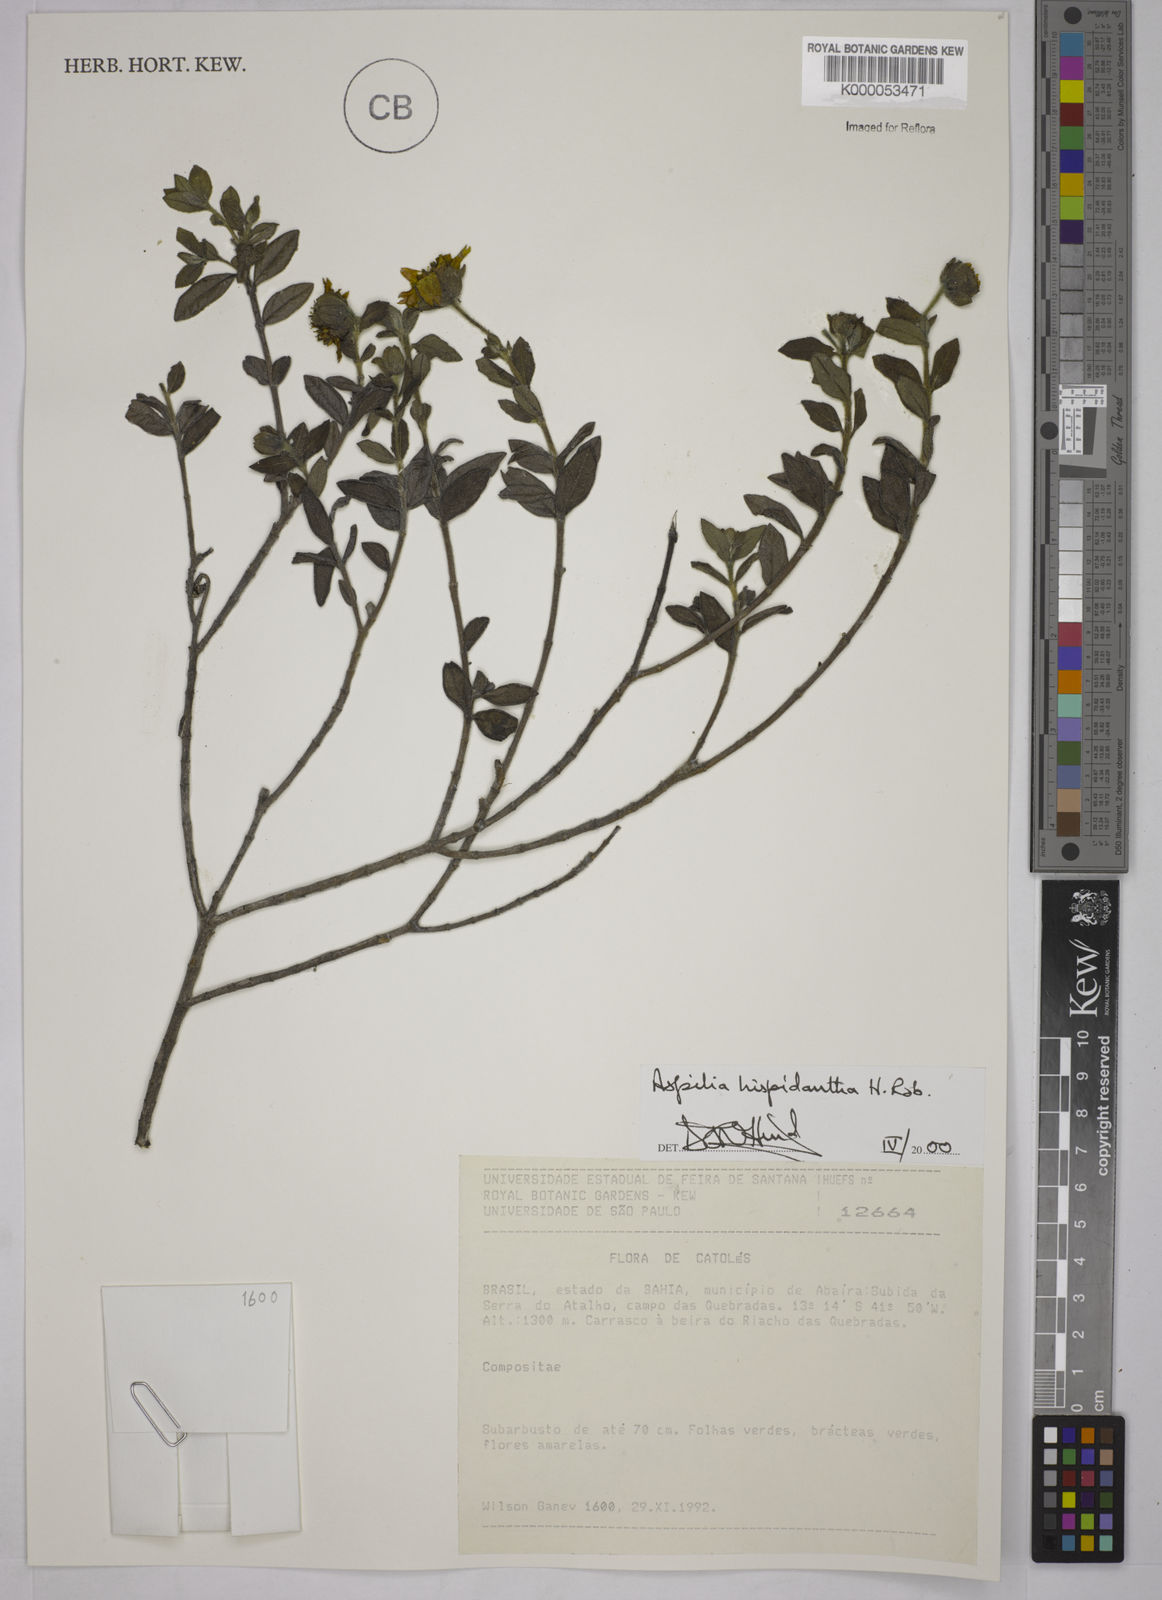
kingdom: Plantae
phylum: Tracheophyta
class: Magnoliopsida
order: Asterales
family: Asteraceae
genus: Wedelia
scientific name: Wedelia subalpestris
